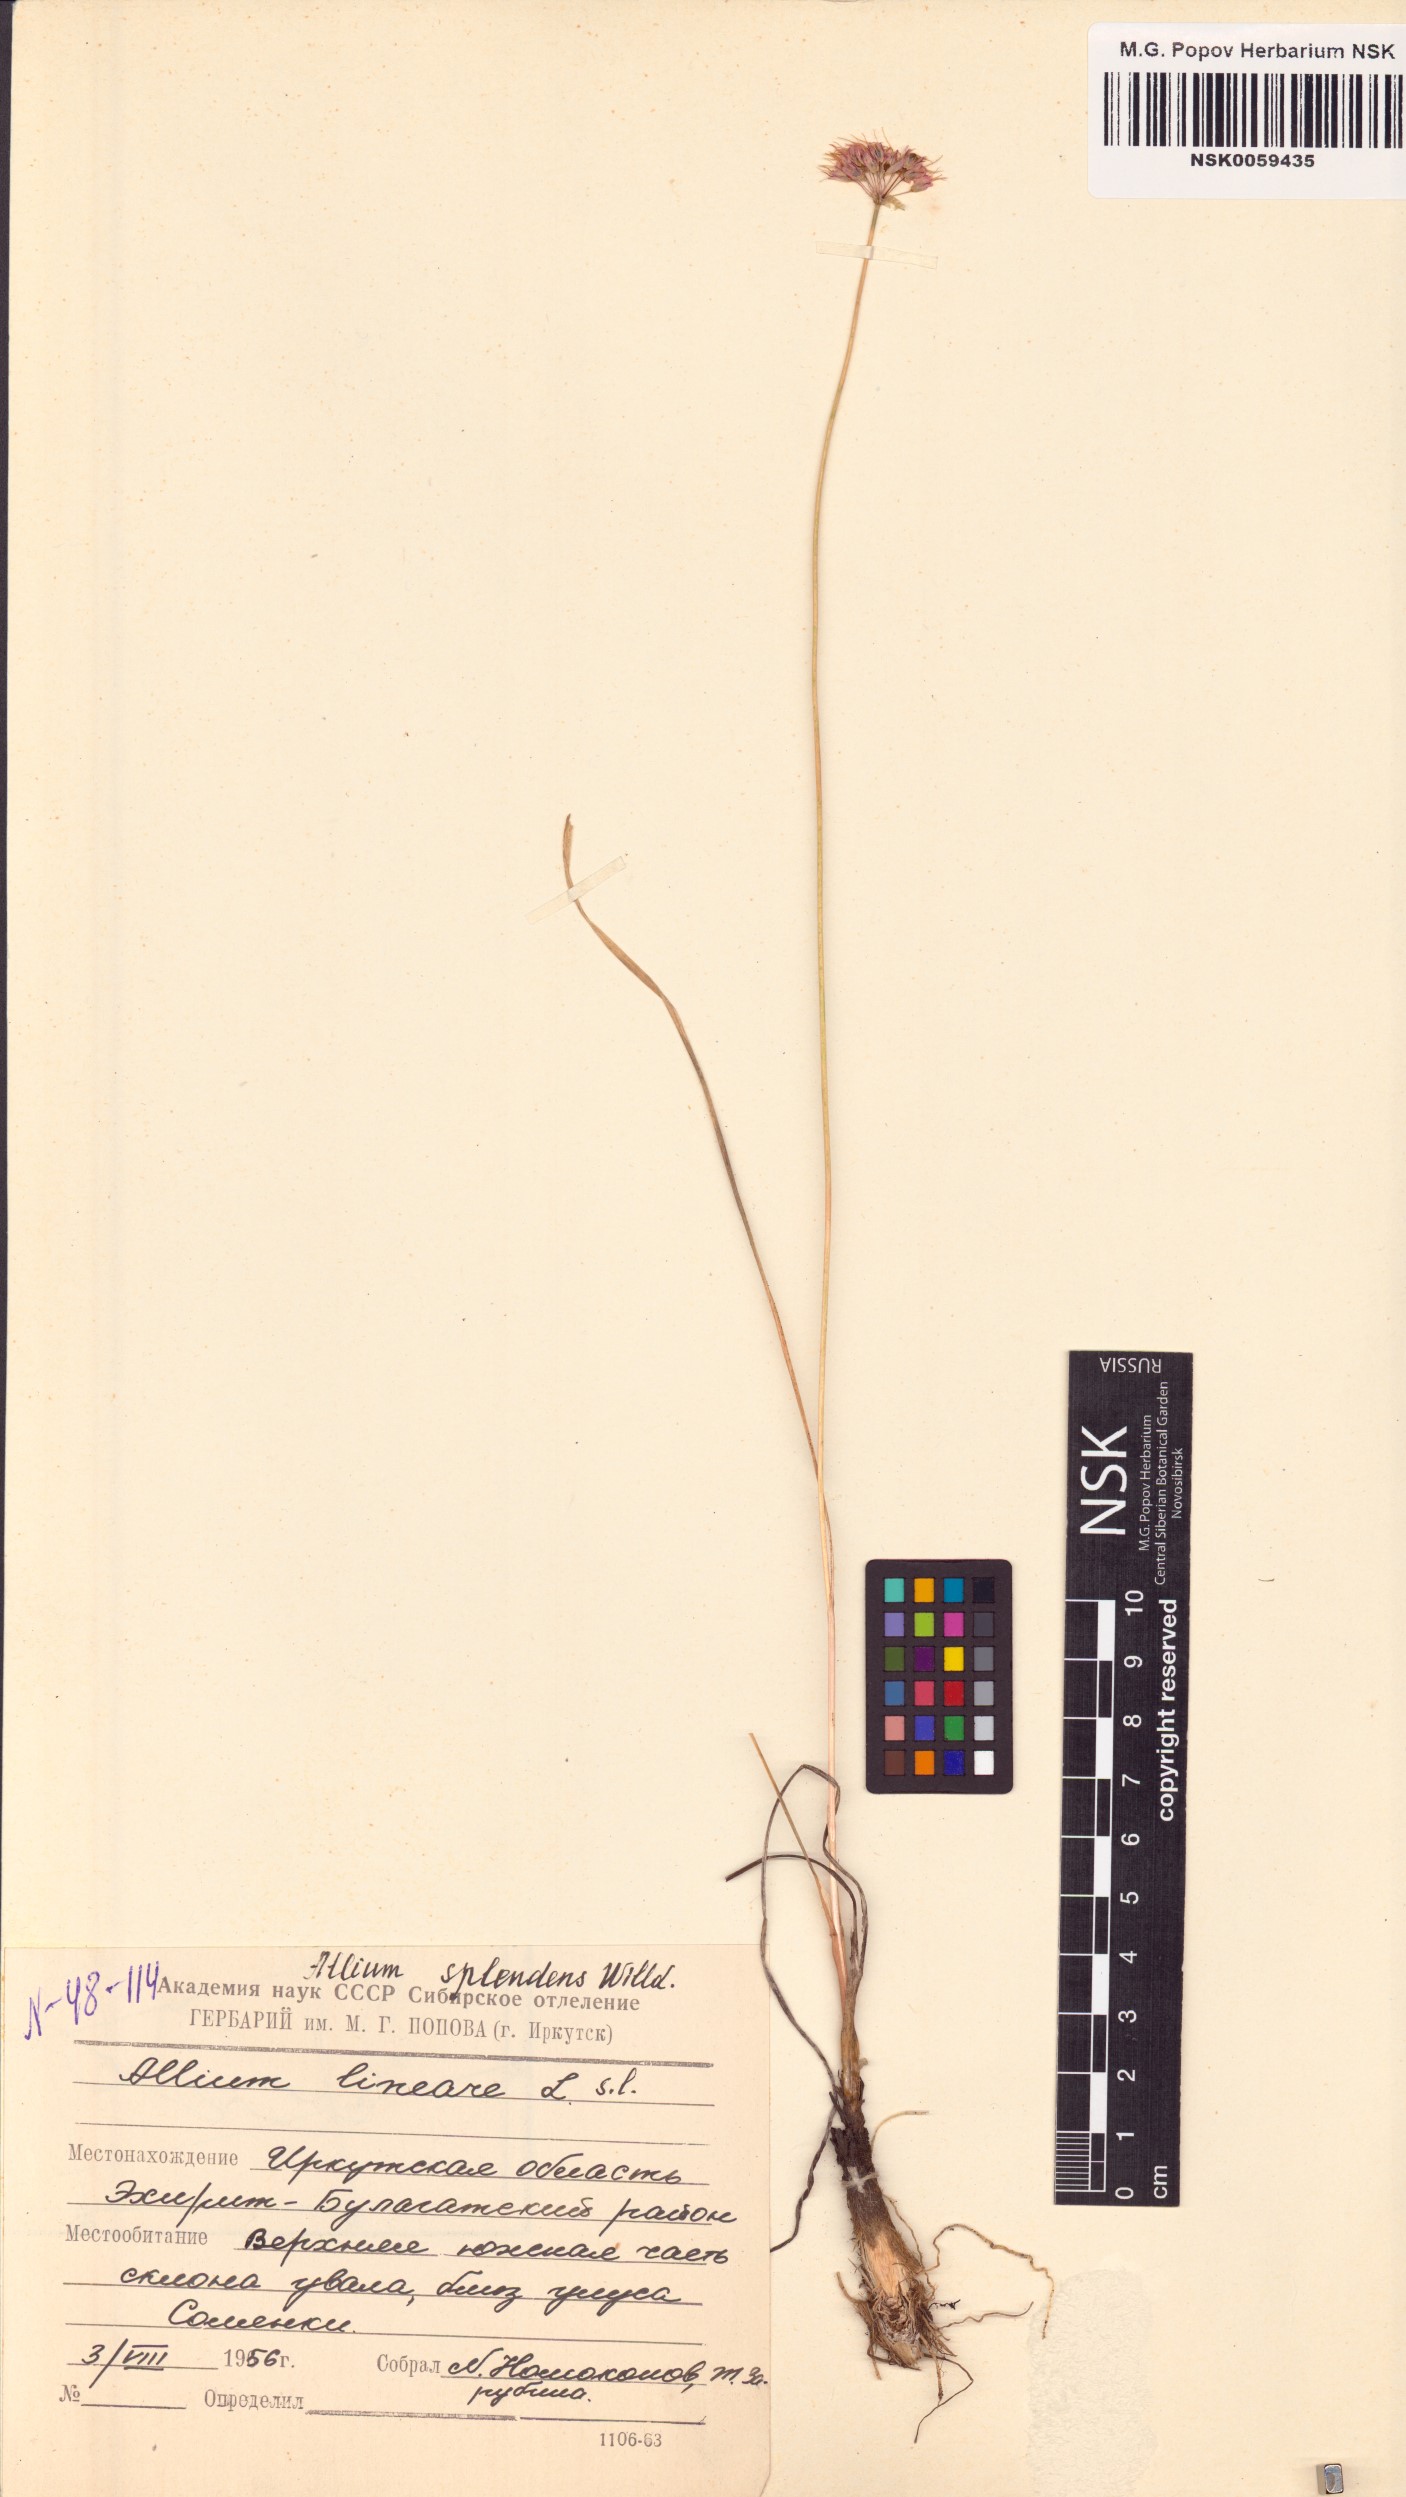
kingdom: Plantae
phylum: Tracheophyta
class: Liliopsida
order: Asparagales
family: Amaryllidaceae
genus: Allium
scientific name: Allium splendens
